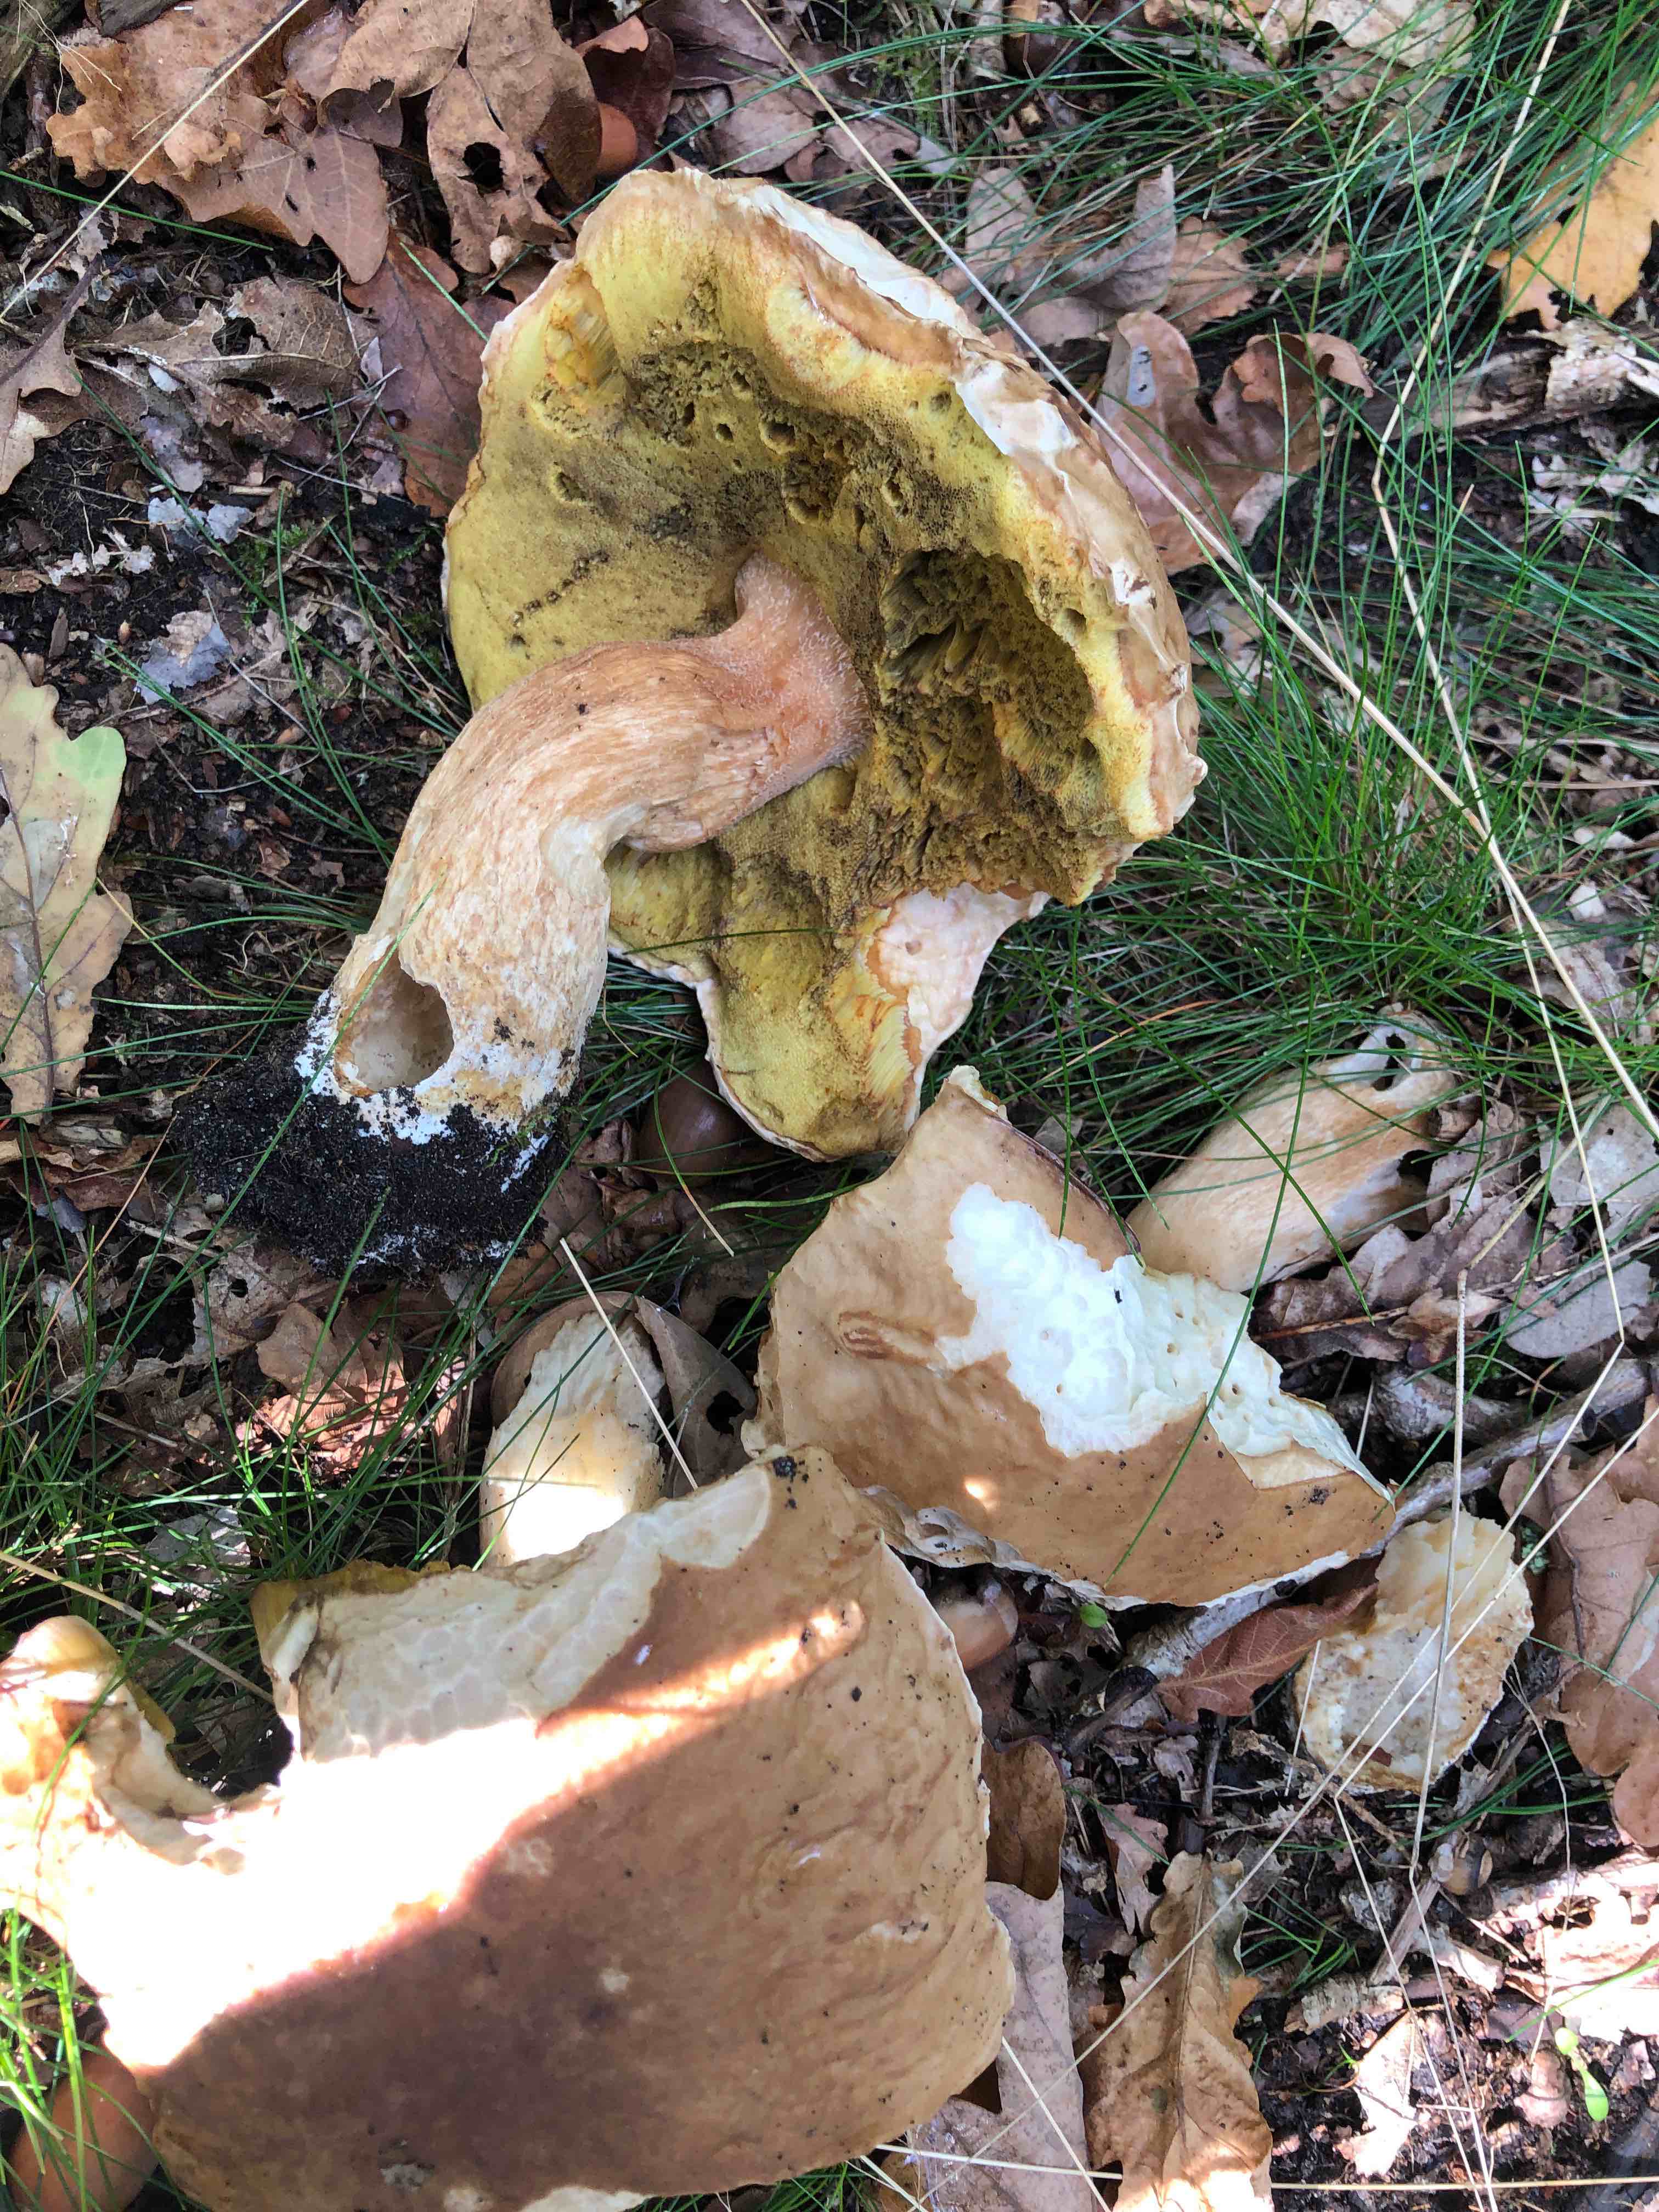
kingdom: Fungi
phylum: Basidiomycota
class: Agaricomycetes
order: Boletales
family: Boletaceae
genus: Boletus
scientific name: Boletus edulis
